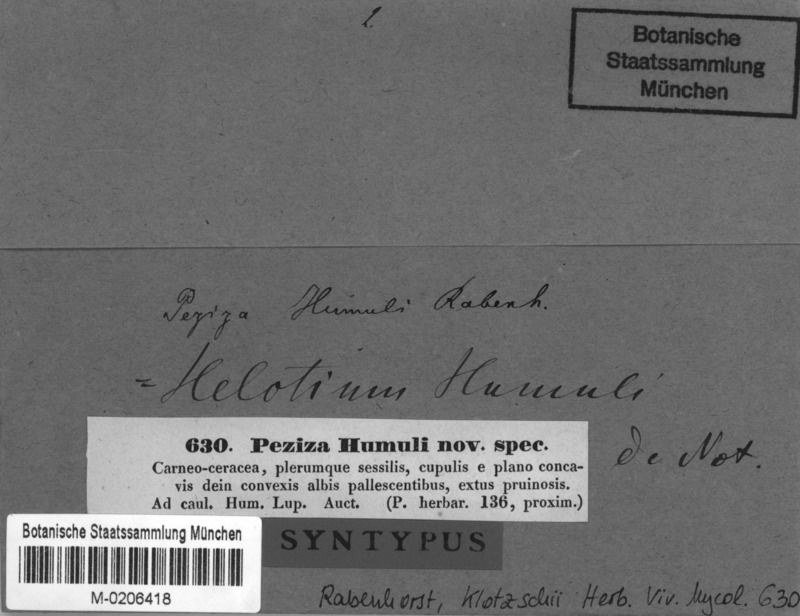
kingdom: Fungi
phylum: Ascomycota
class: Leotiomycetes
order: Helotiales
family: Helotiaceae
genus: Hymenoscyphus
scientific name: Hymenoscyphus humuli
